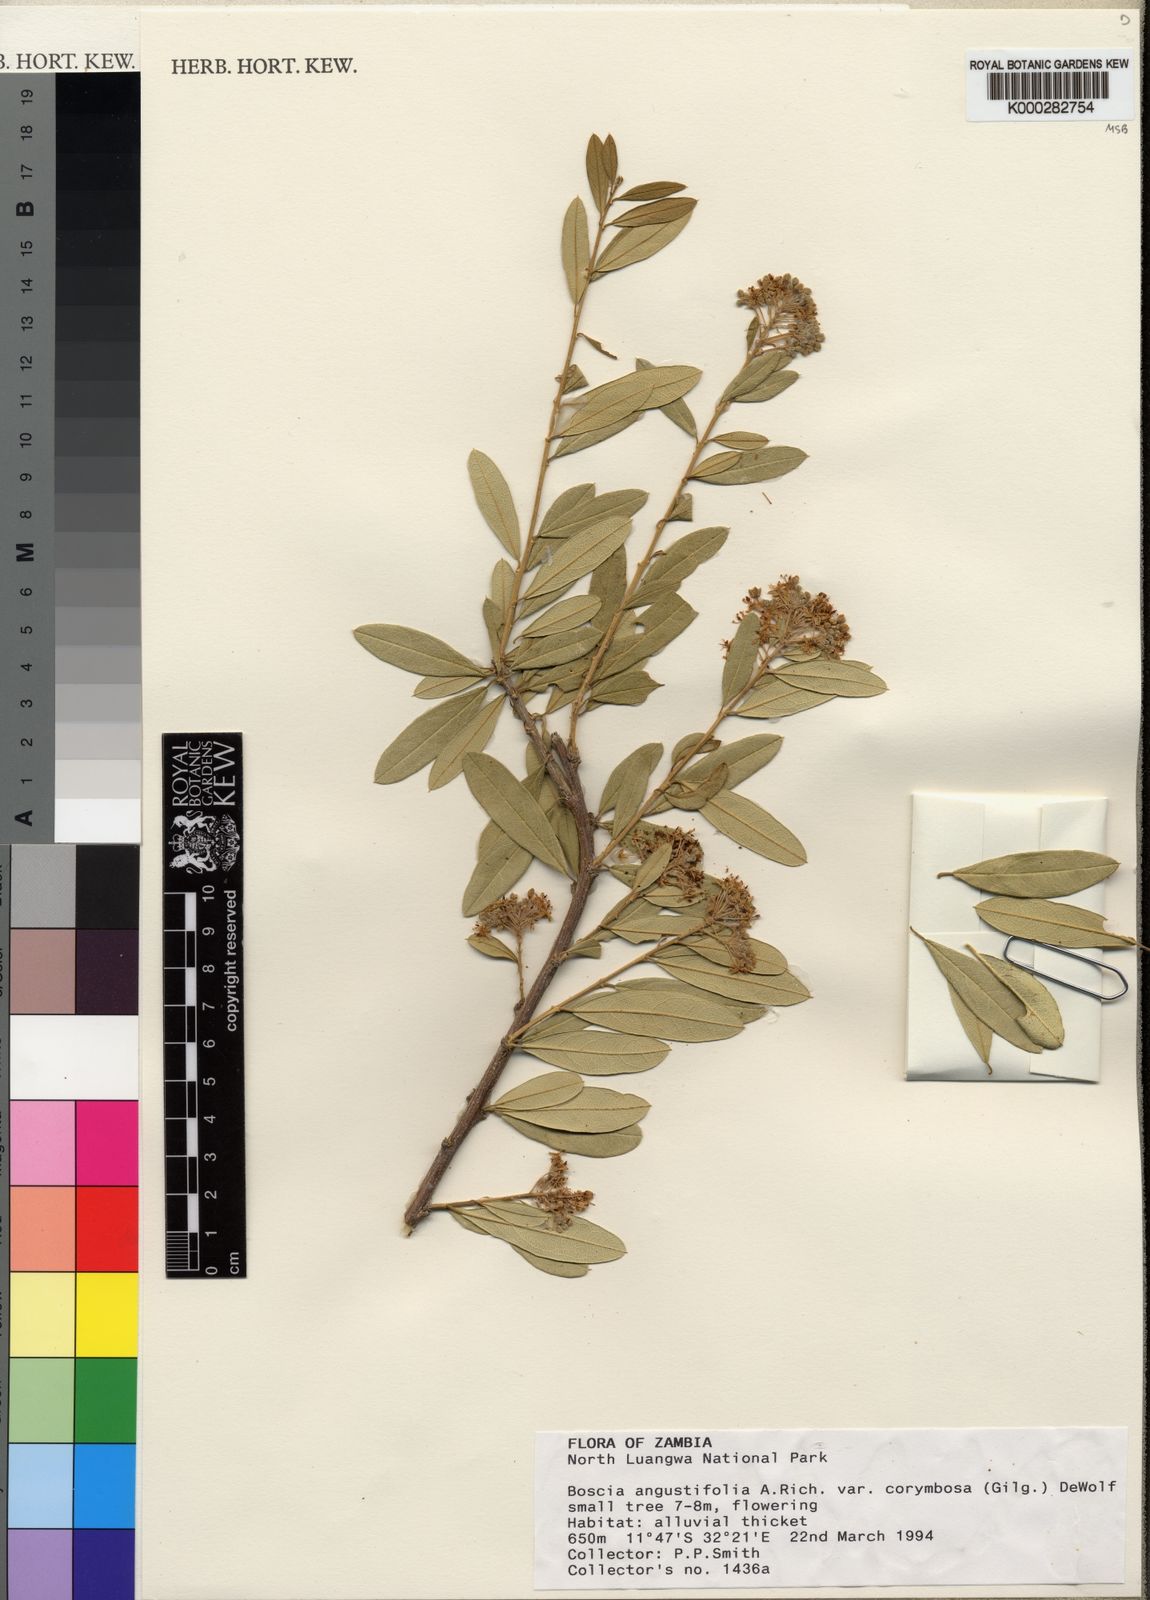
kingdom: Plantae
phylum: Tracheophyta
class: Magnoliopsida
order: Brassicales
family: Capparaceae
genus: Boscia
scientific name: Boscia
